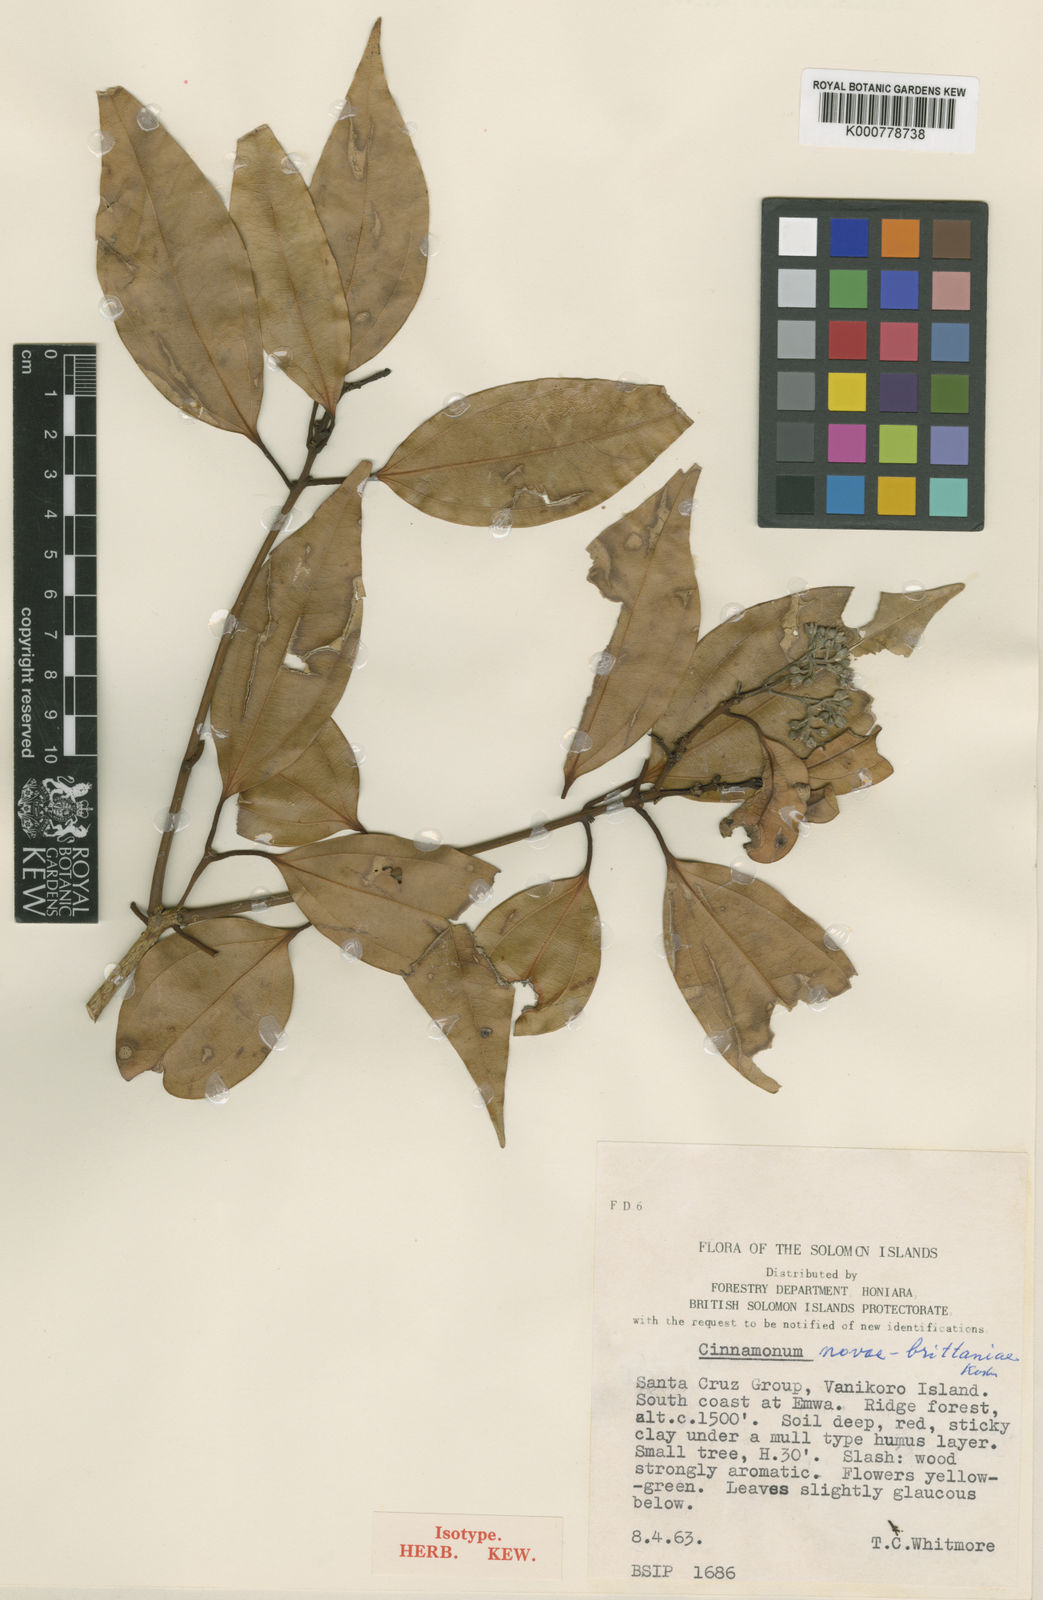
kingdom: Plantae
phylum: Tracheophyta
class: Magnoliopsida
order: Laurales
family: Lauraceae
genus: Cinnamomum
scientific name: Cinnamomum novae-britanniae
